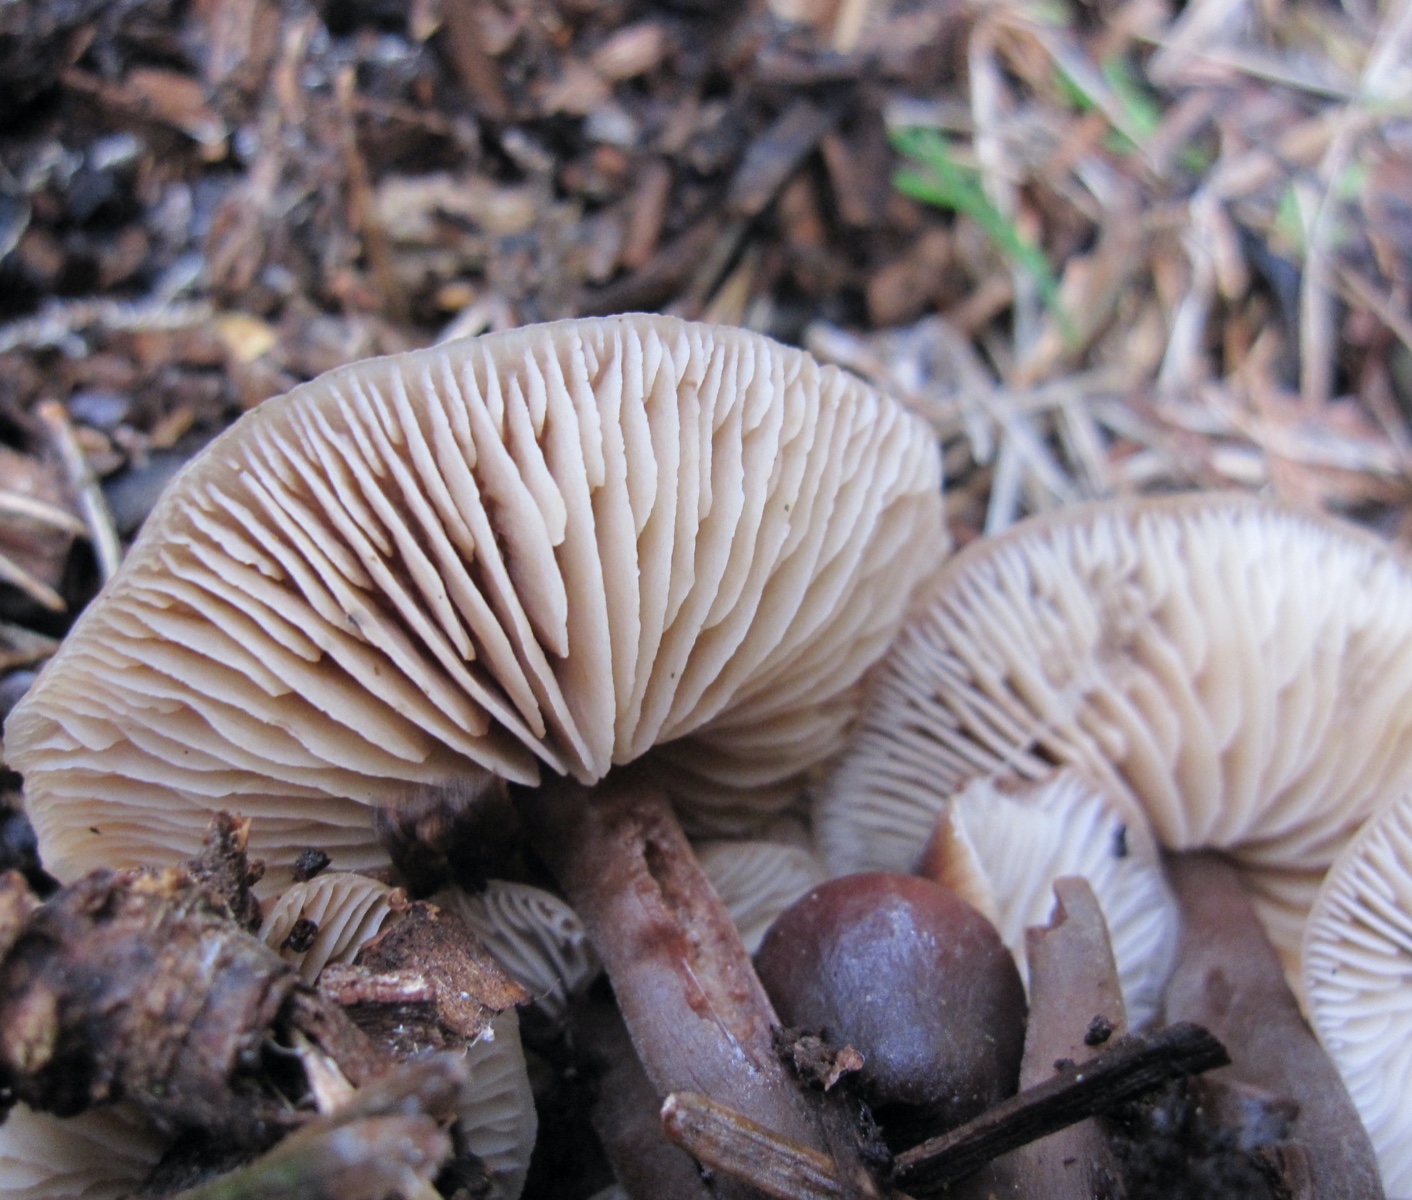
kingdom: Fungi
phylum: Basidiomycota
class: Agaricomycetes
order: Agaricales
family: Macrocystidiaceae
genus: Macrocystidia
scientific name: Macrocystidia cucumis
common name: agurkehat
